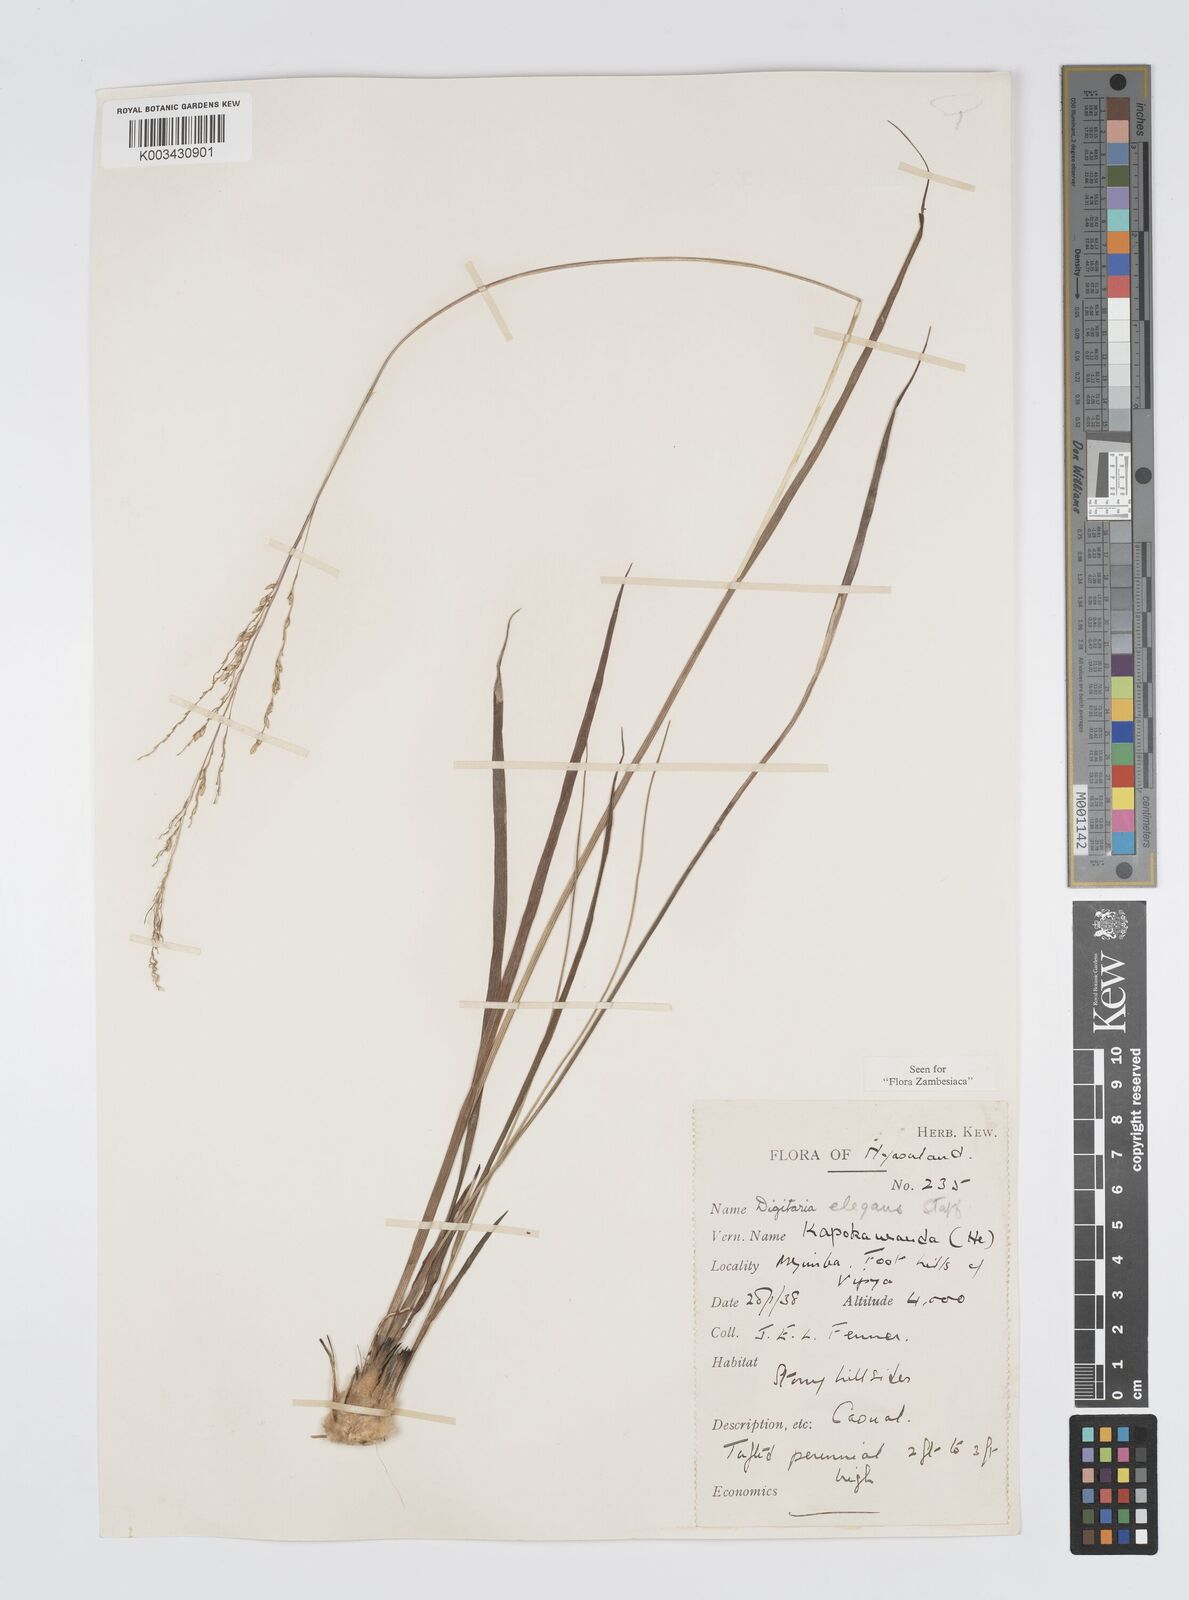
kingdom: Plantae
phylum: Tracheophyta
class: Liliopsida
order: Poales
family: Poaceae
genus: Digitaria
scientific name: Digitaria flaccida
